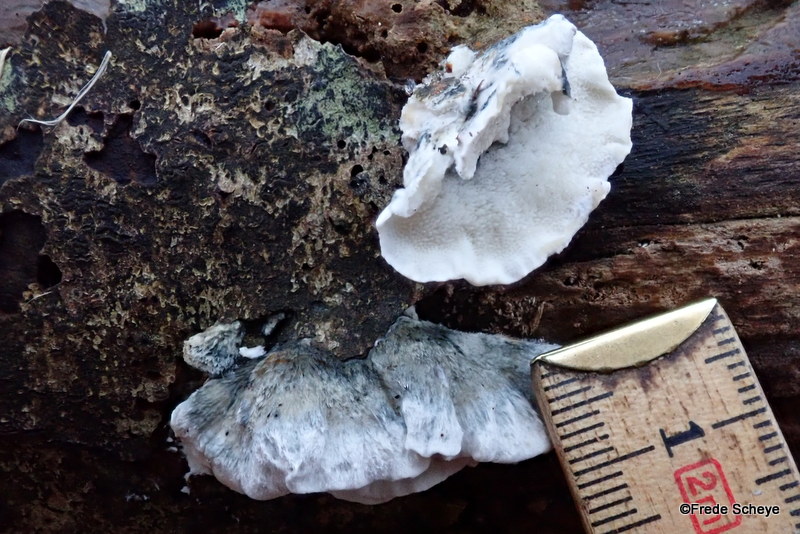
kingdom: Fungi
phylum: Basidiomycota
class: Agaricomycetes
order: Polyporales
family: Polyporaceae
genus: Cyanosporus
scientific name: Cyanosporus alni
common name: blegblå kødporesvamp
